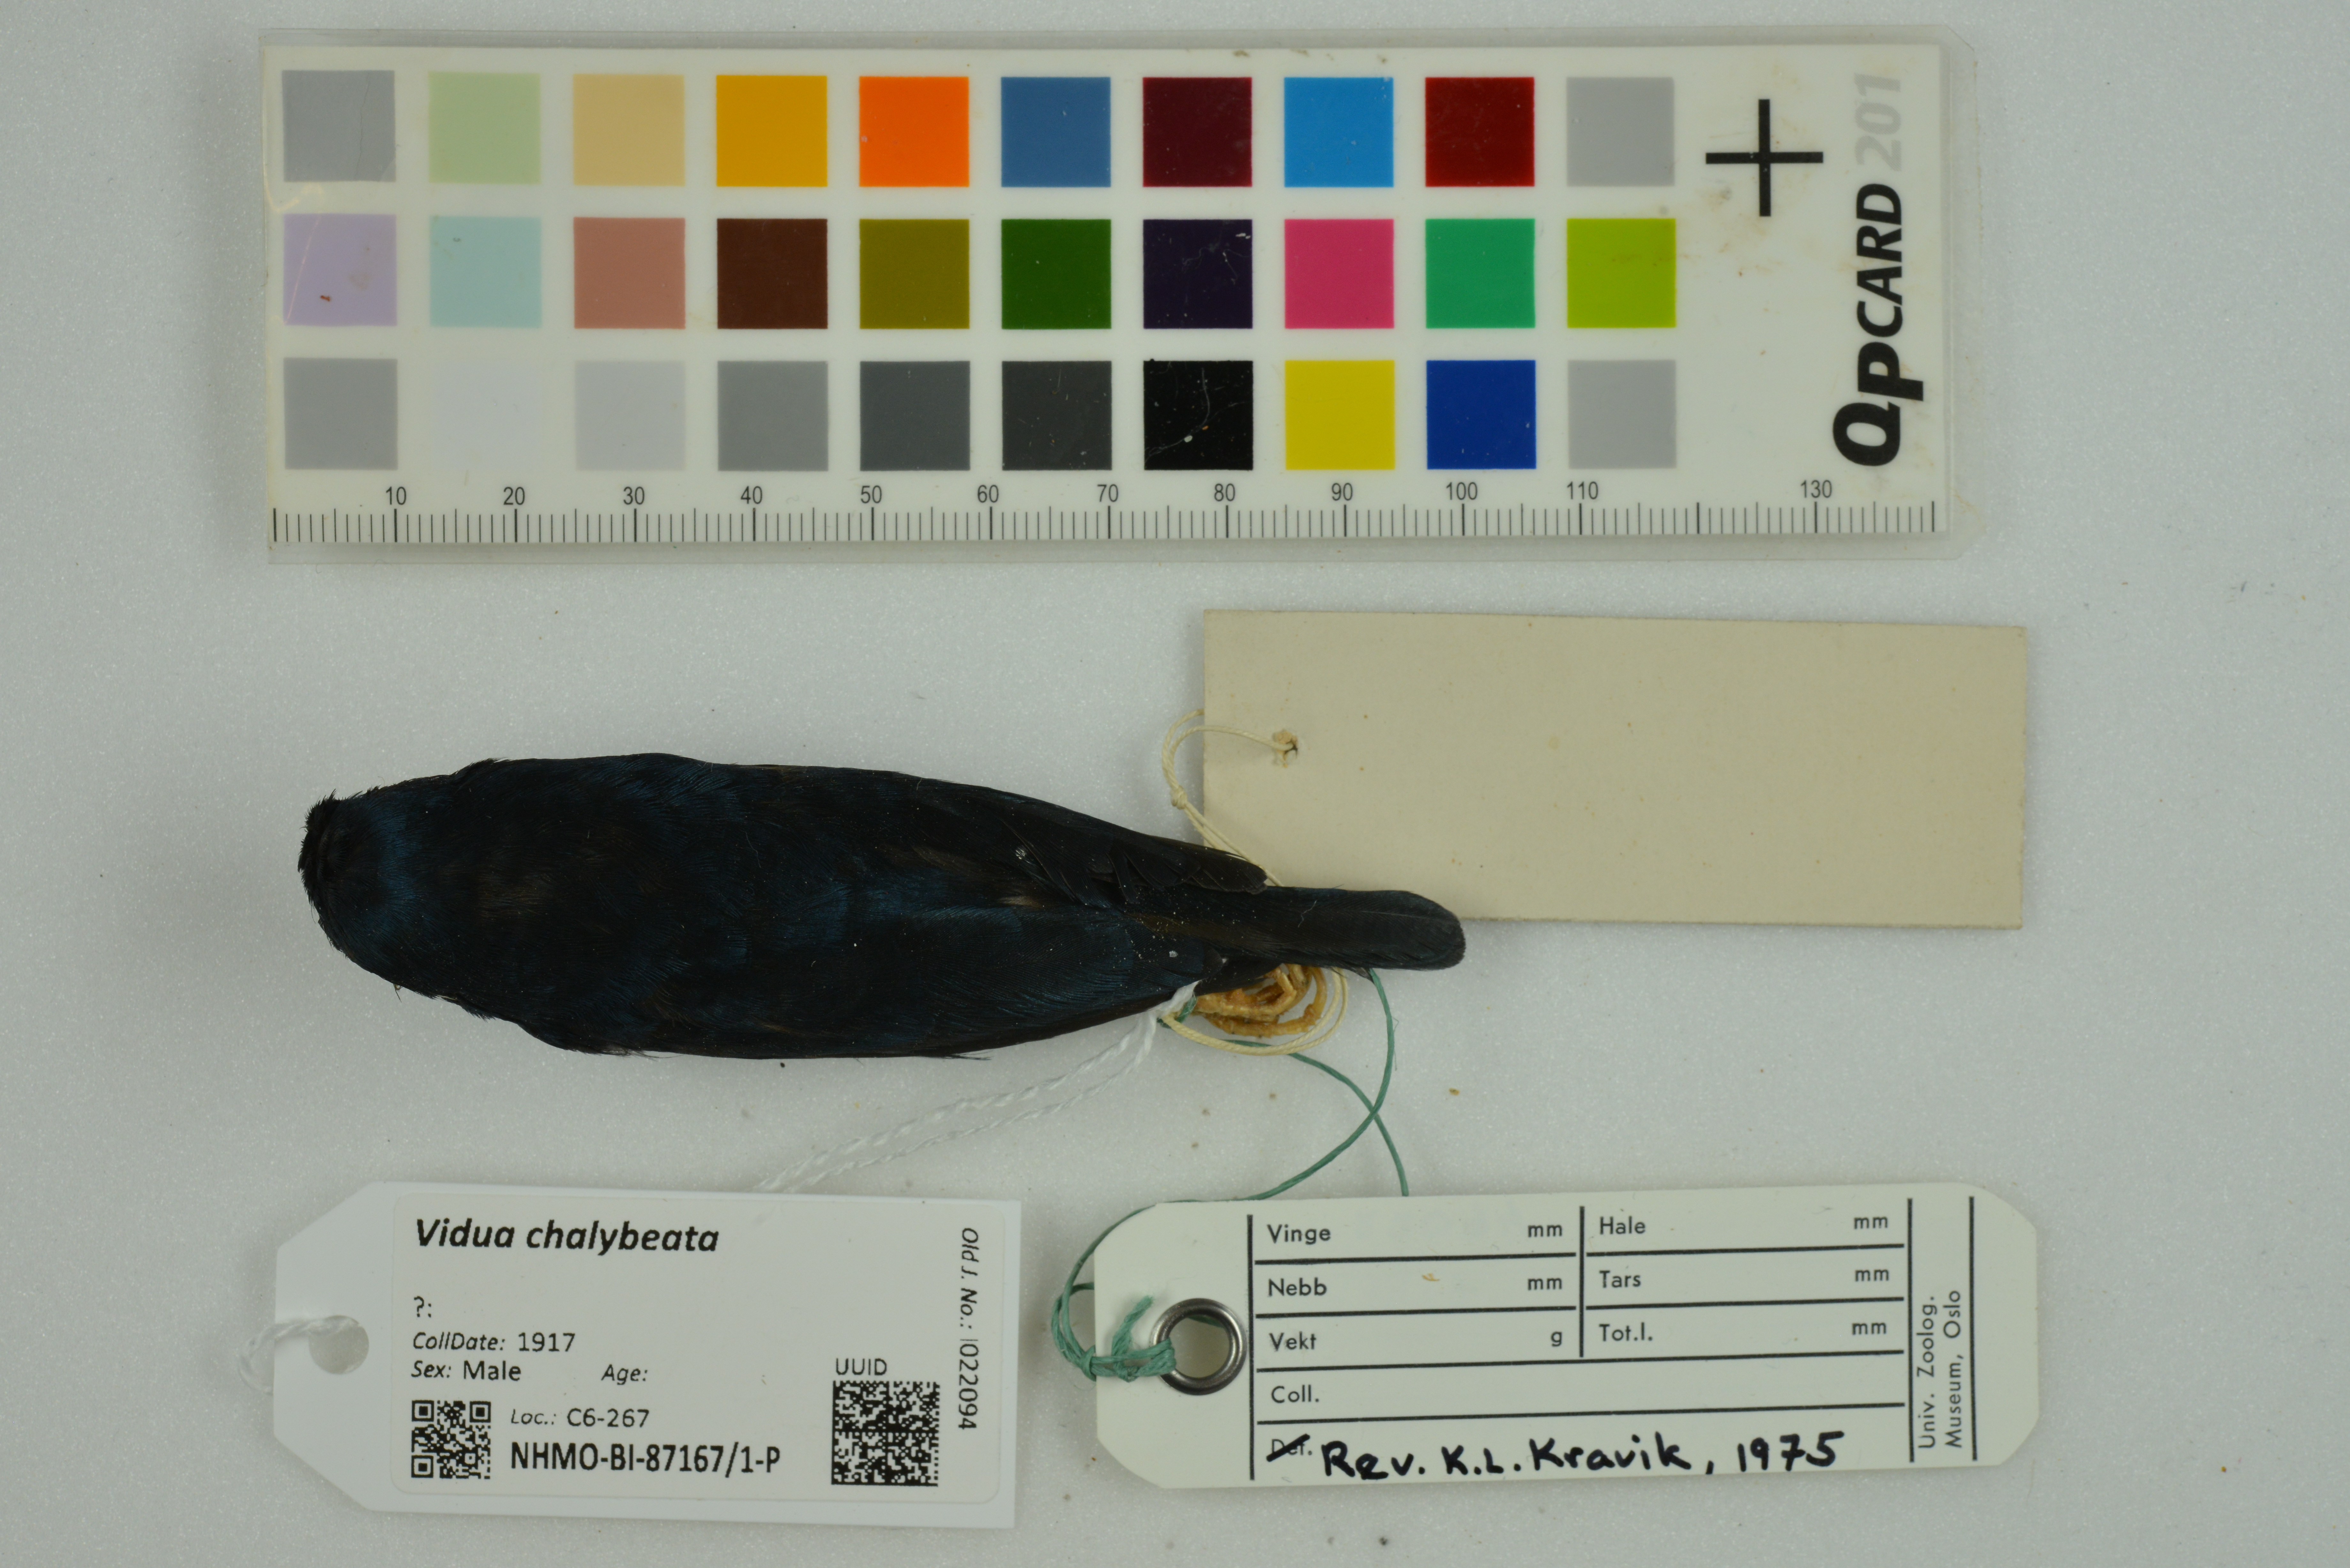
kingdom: Animalia
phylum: Chordata
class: Aves
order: Passeriformes
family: Viduidae
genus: Vidua
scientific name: Vidua chalybeata
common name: Village indigobird
